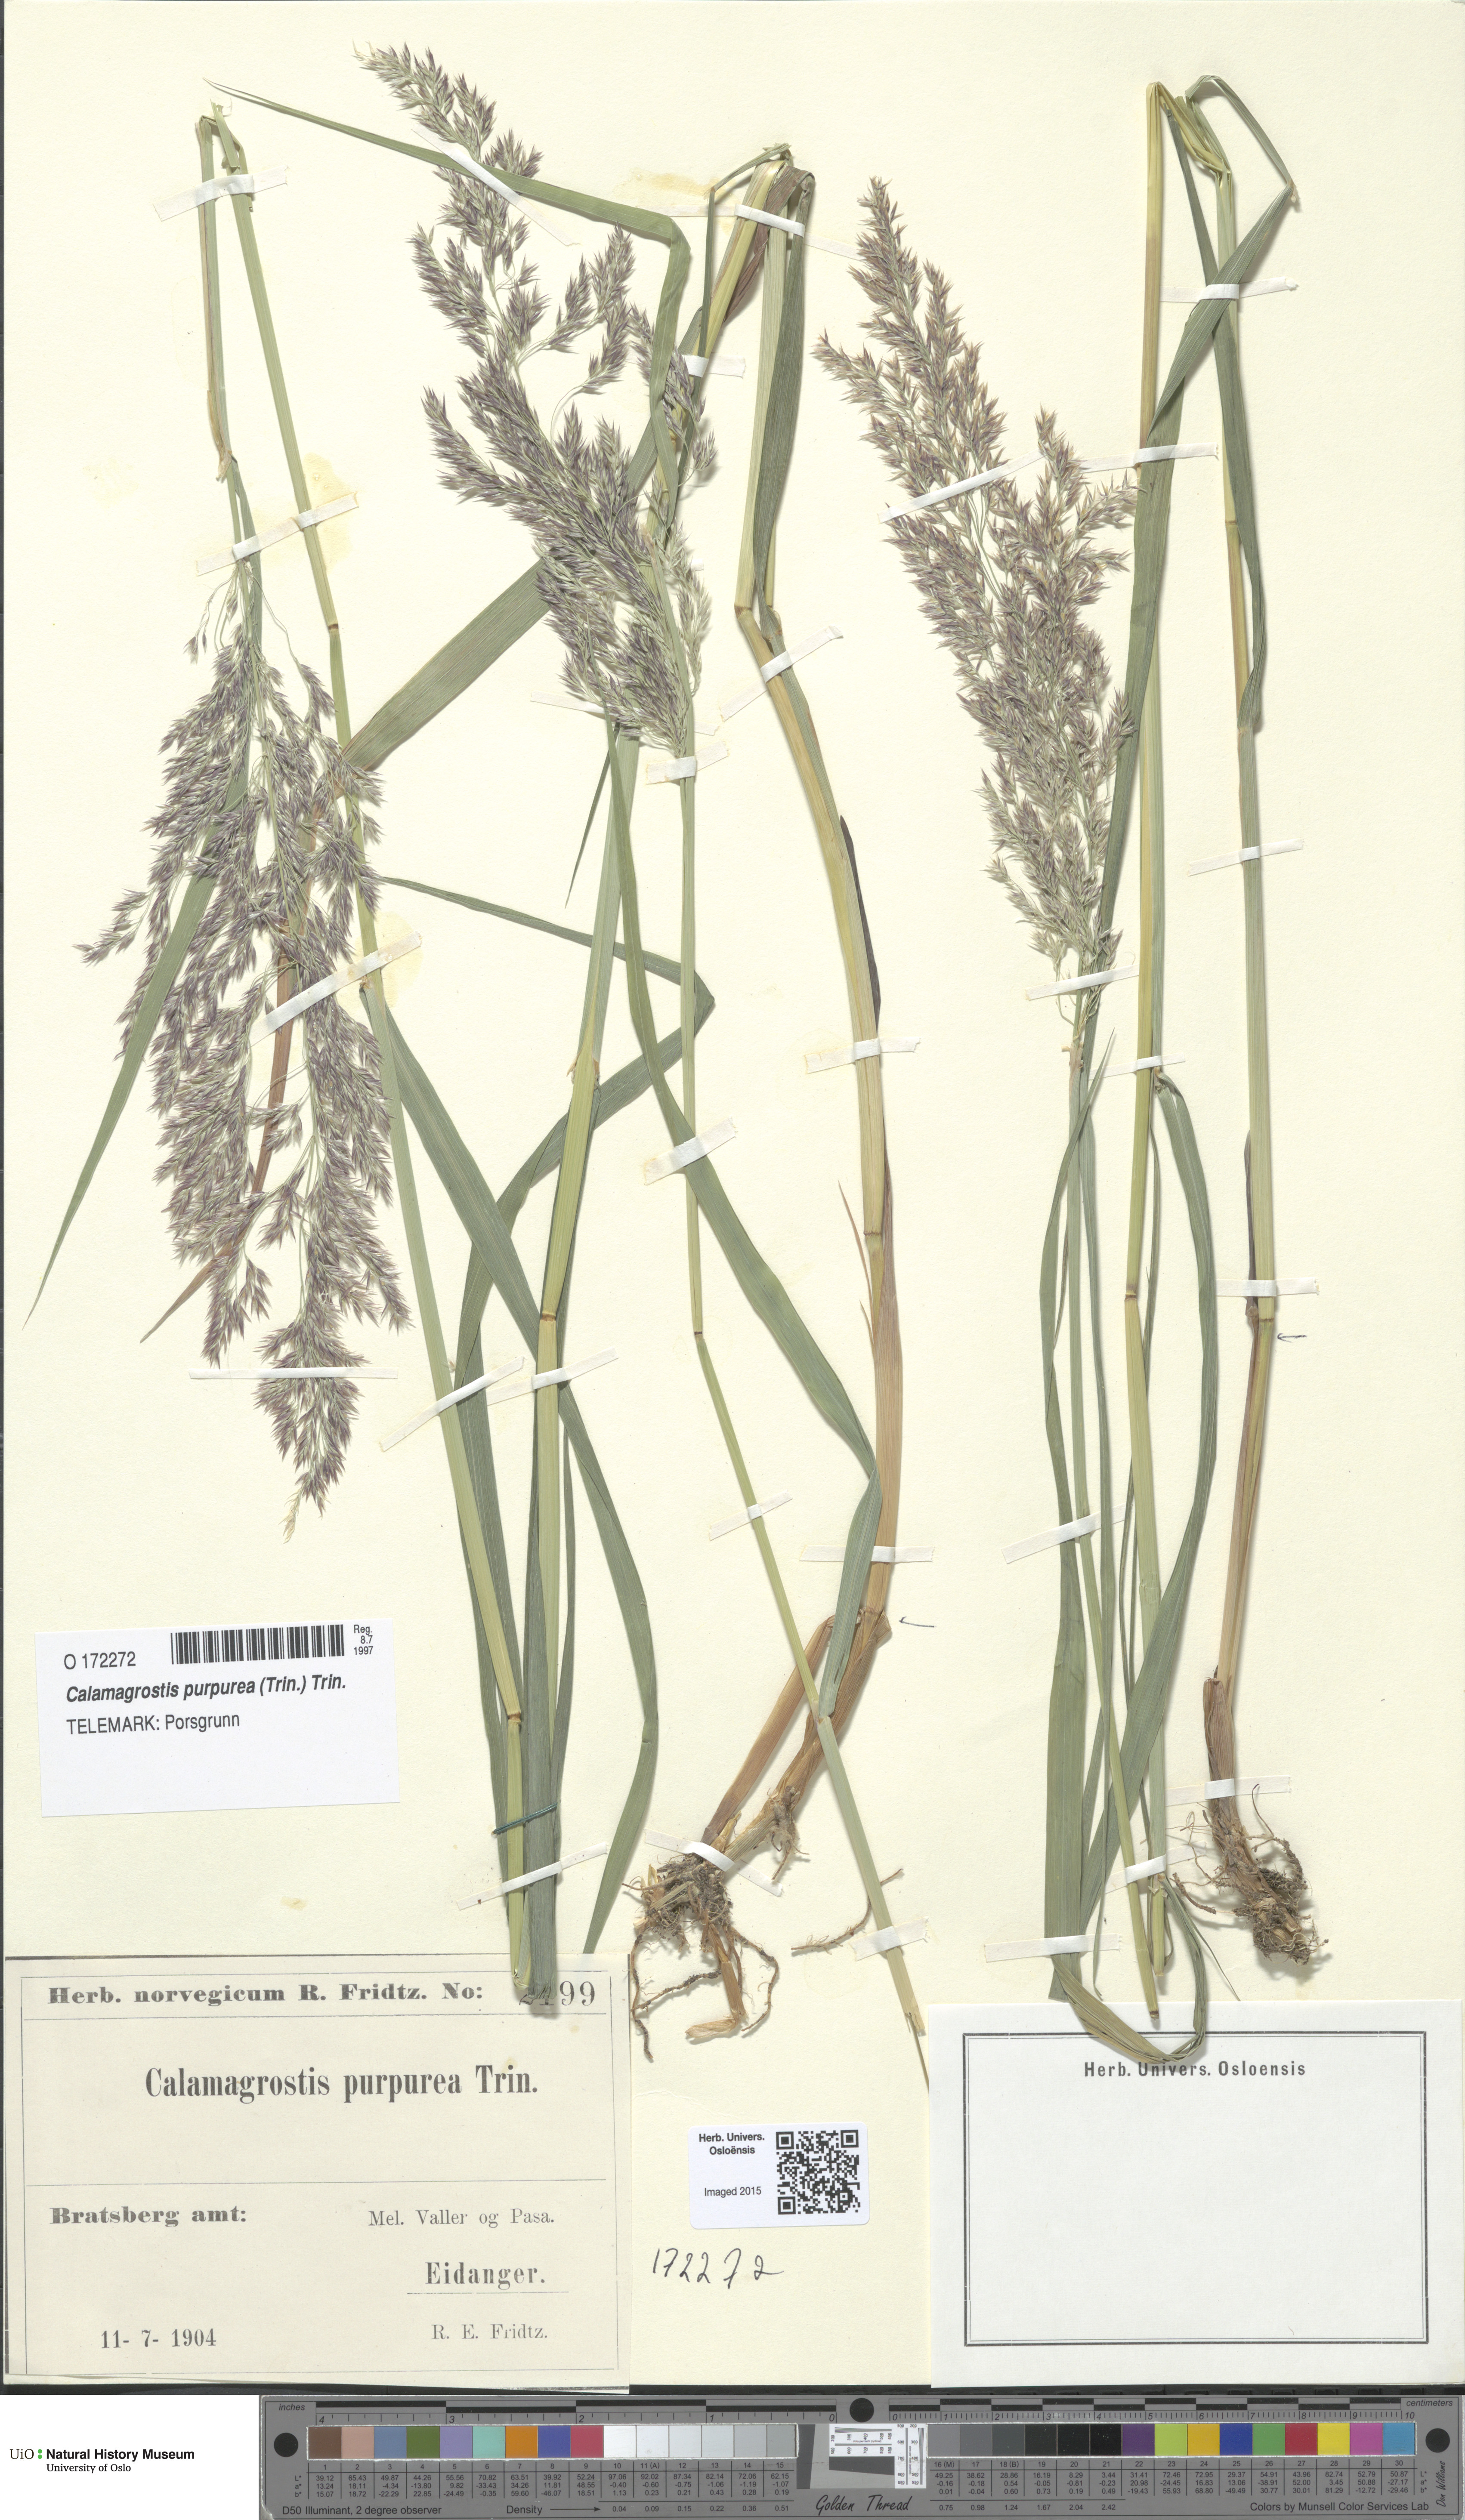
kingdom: Plantae
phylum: Tracheophyta
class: Liliopsida
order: Poales
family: Poaceae
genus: Calamagrostis
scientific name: Calamagrostis purpurea
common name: Scandinavian small-reed
